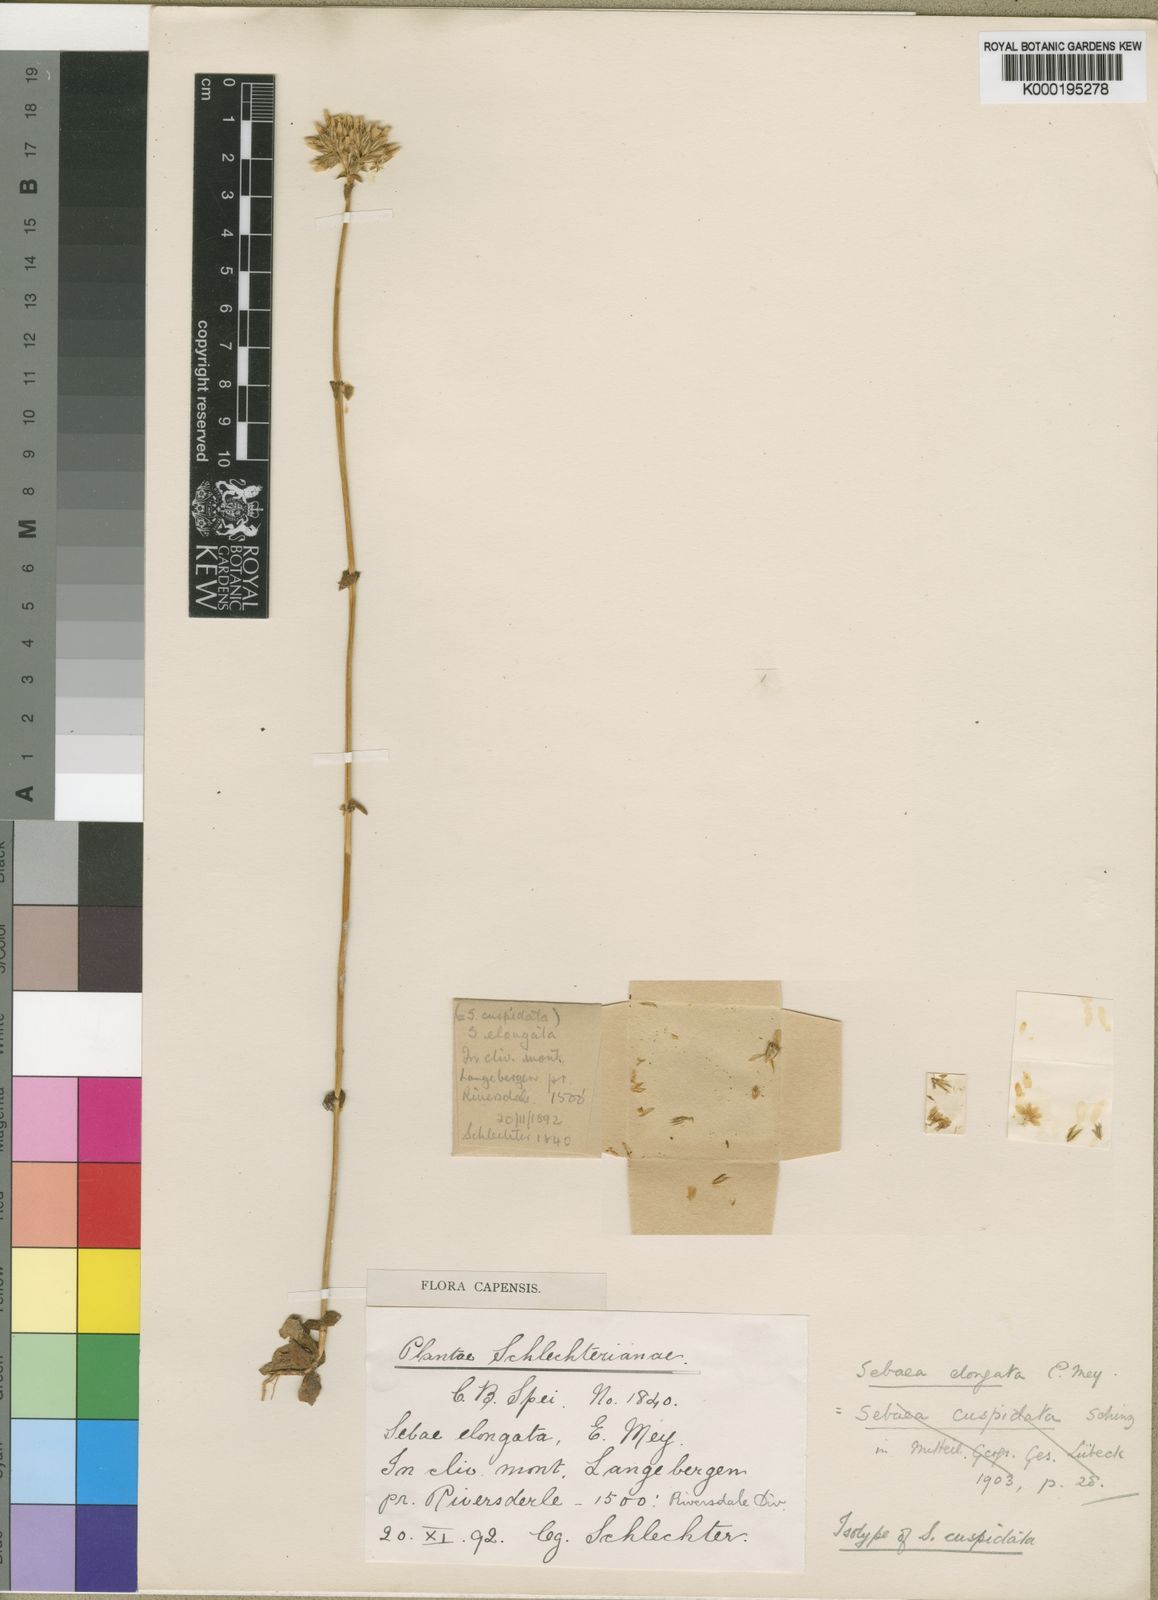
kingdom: Plantae
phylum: Tracheophyta
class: Magnoliopsida
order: Gentianales
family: Gentianaceae
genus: Sebaea
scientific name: Sebaea elongata
